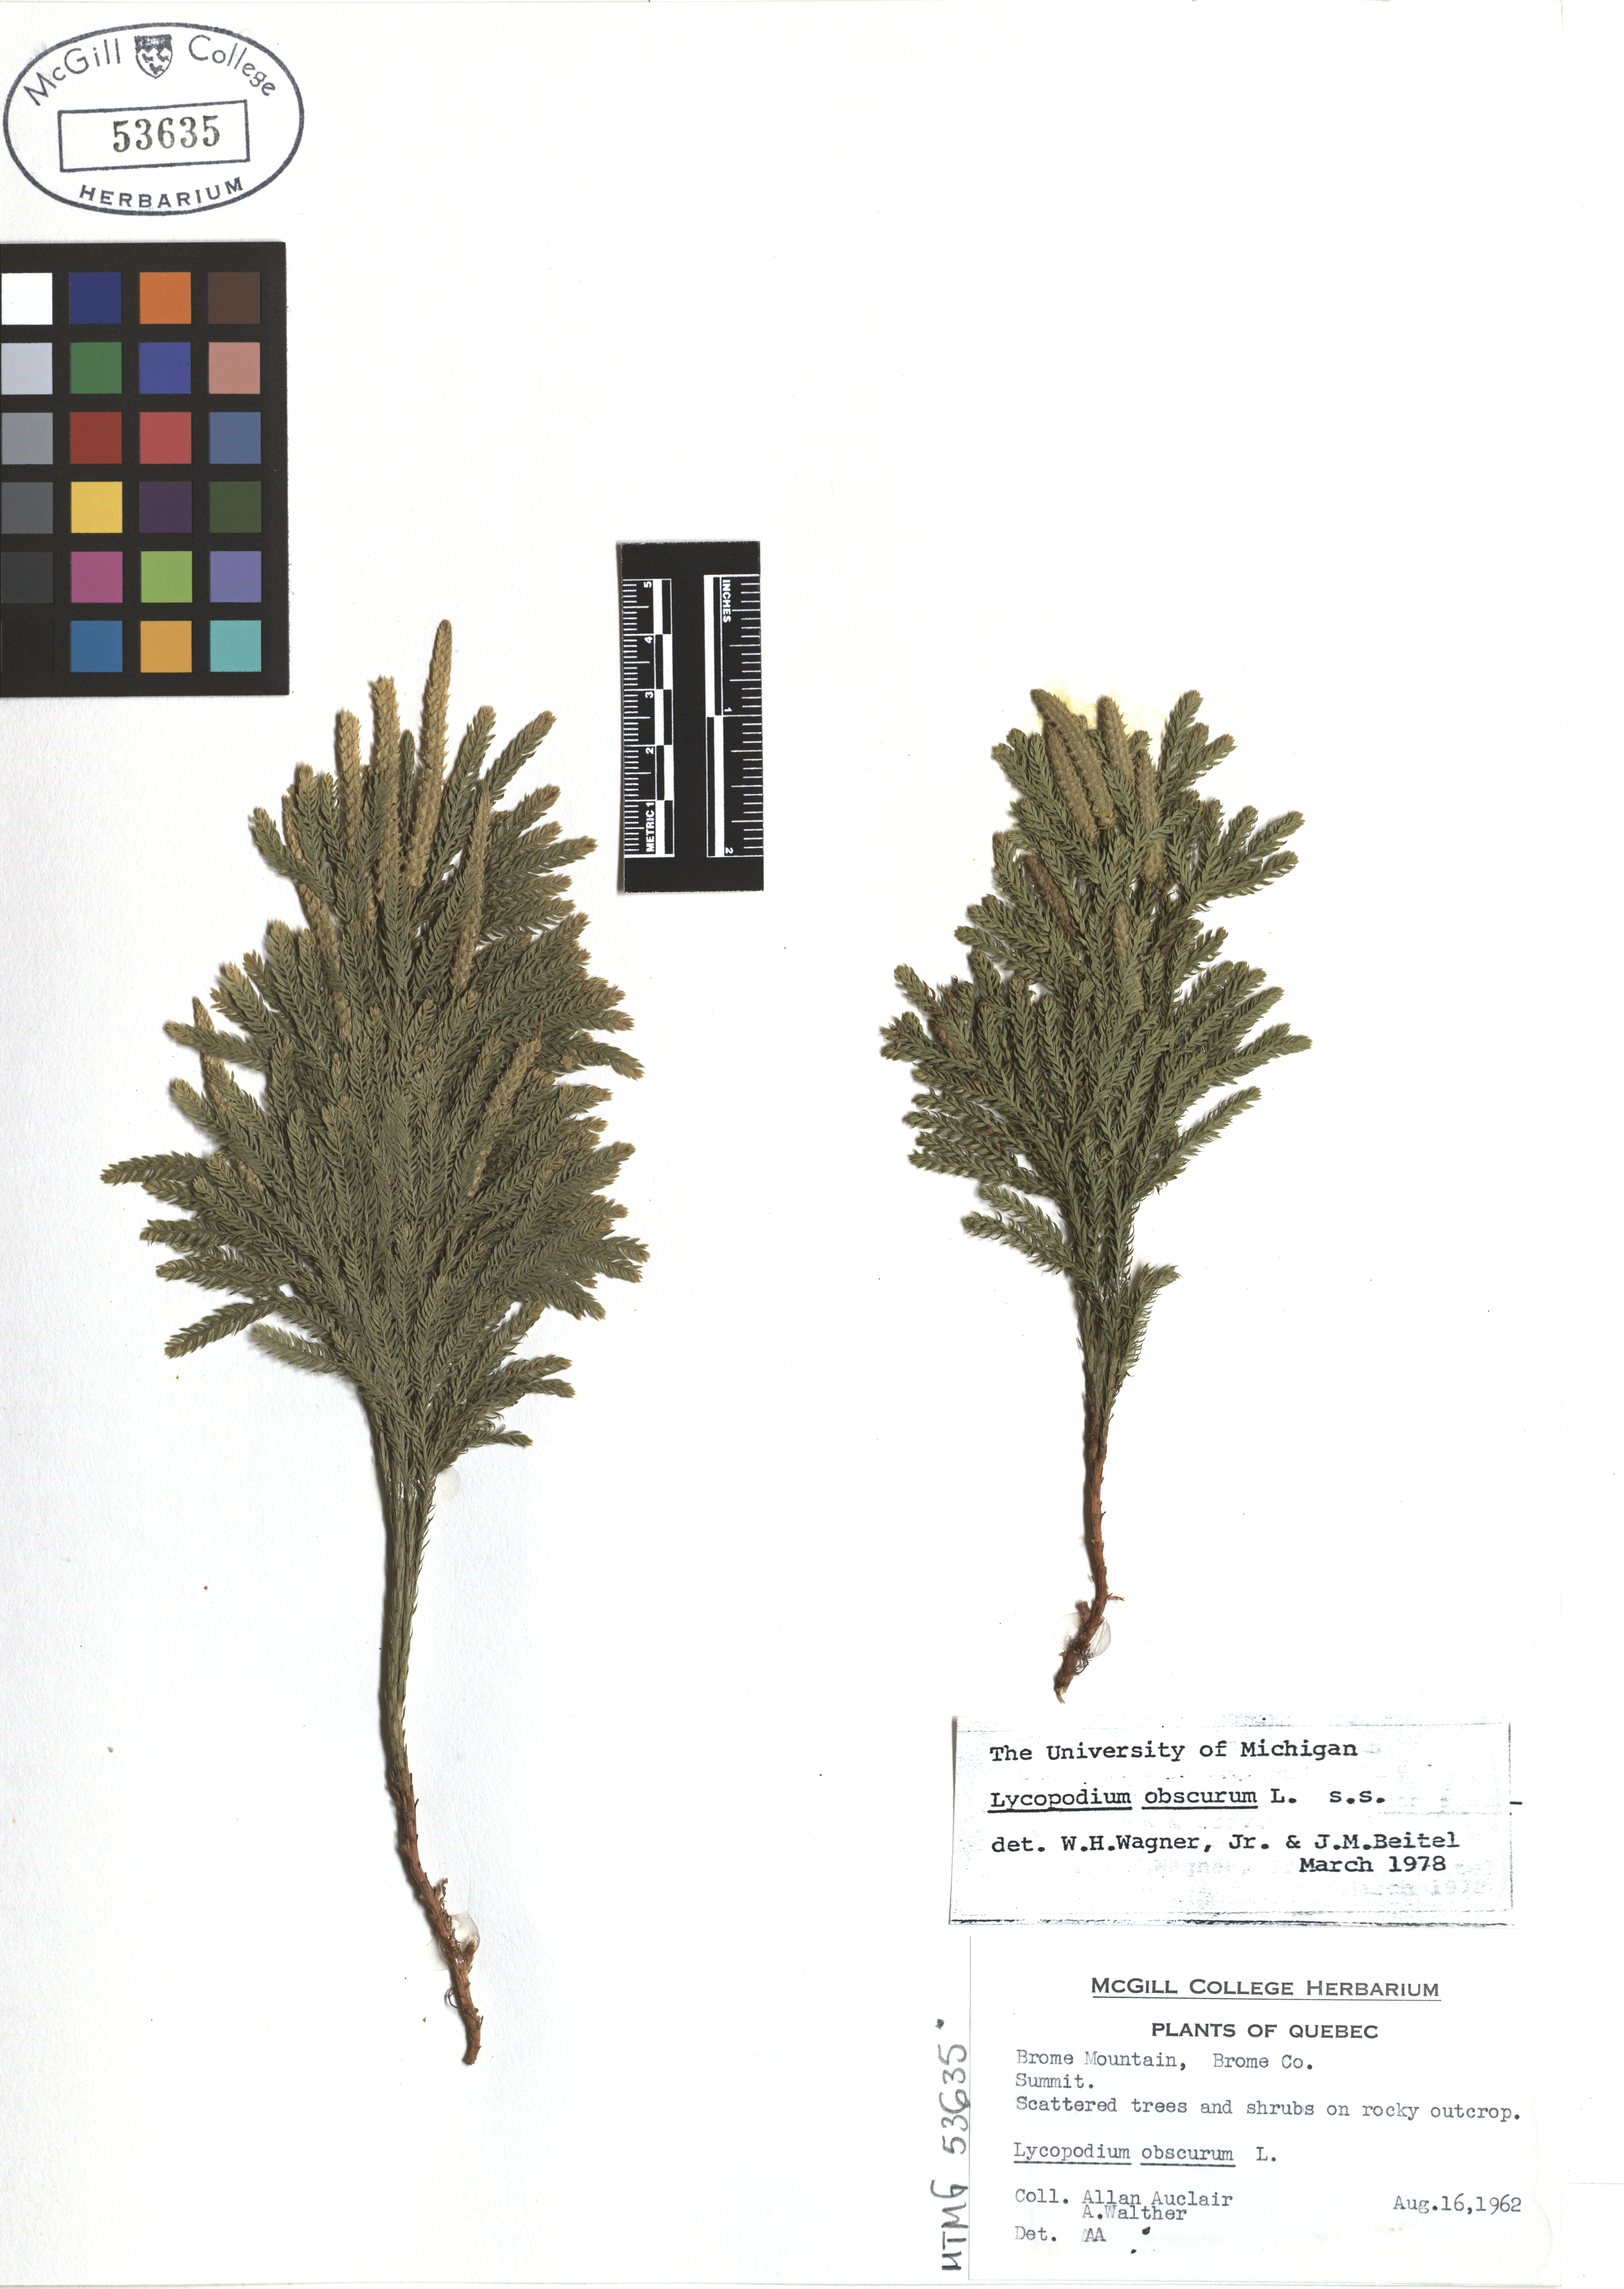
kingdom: Plantae
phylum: Tracheophyta
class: Lycopodiopsida
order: Lycopodiales
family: Lycopodiaceae
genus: Dendrolycopodium
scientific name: Dendrolycopodium obscurum
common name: Common ground-pine
